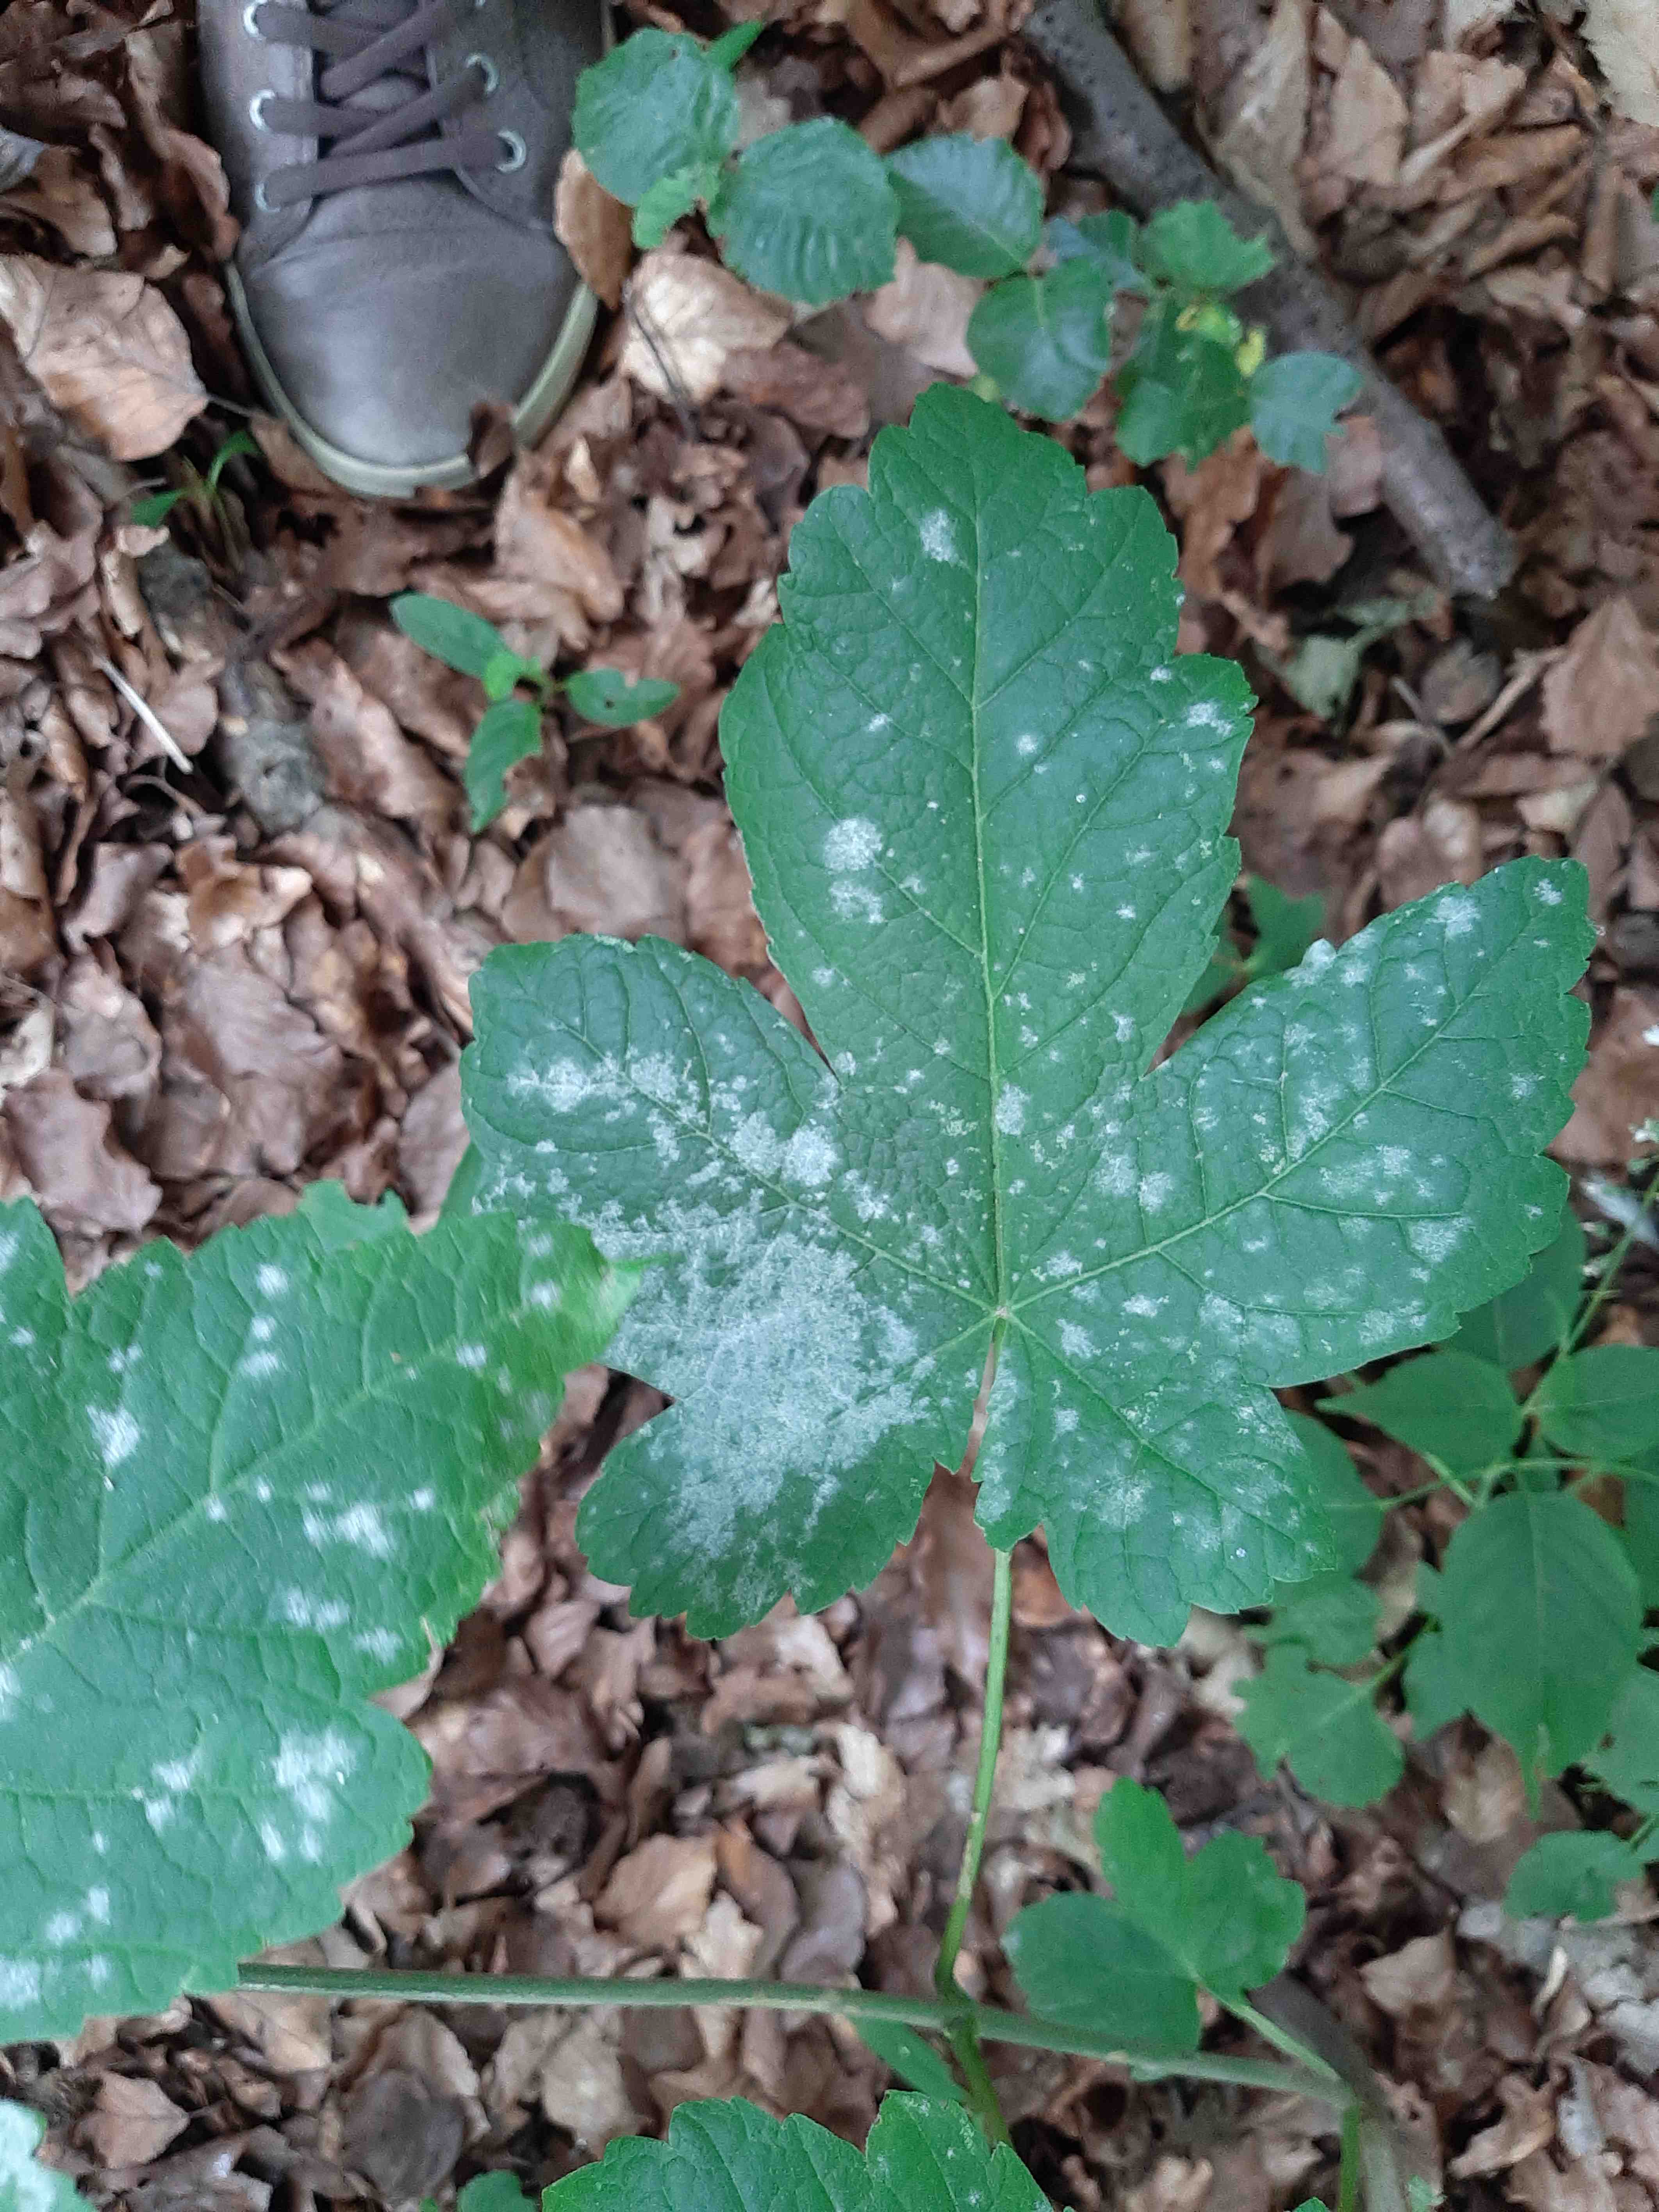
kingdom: Fungi
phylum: Ascomycota
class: Leotiomycetes
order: Helotiales
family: Erysiphaceae
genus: Sawadaea
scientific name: Sawadaea bicornis
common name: Maple mildew
